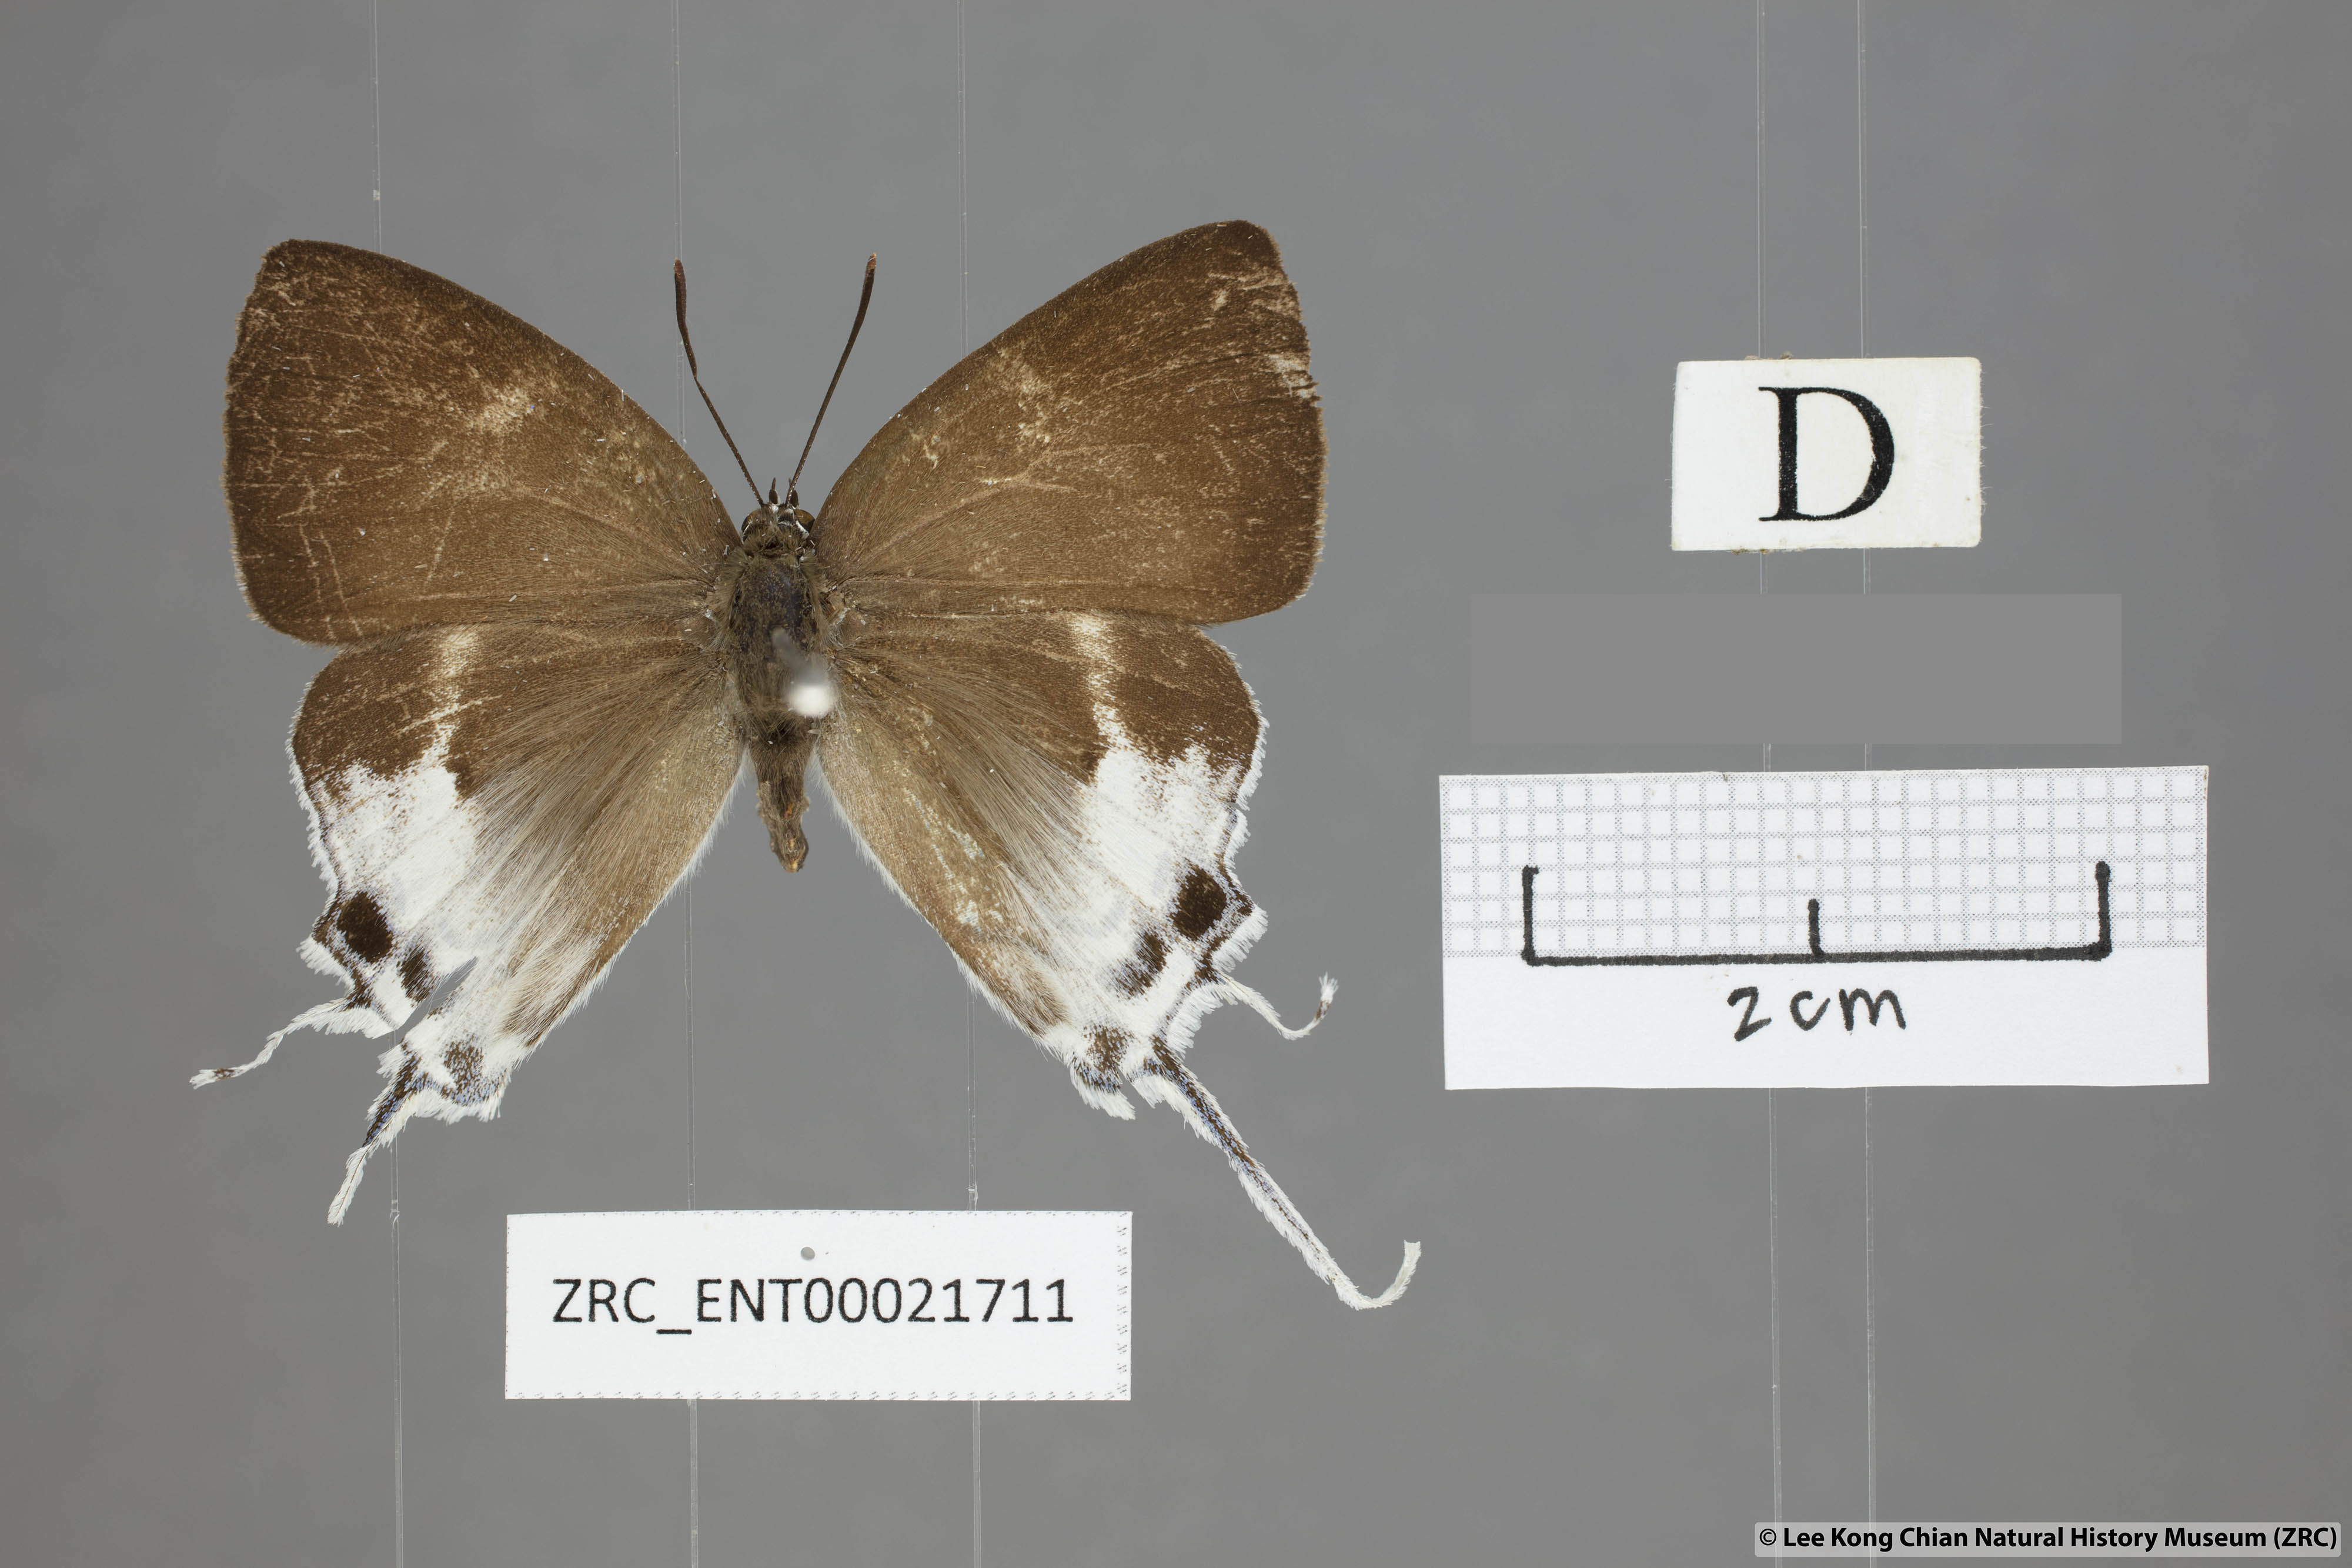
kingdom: Animalia
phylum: Arthropoda
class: Insecta
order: Lepidoptera
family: Lycaenidae
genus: Neocheritra
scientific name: Neocheritra
